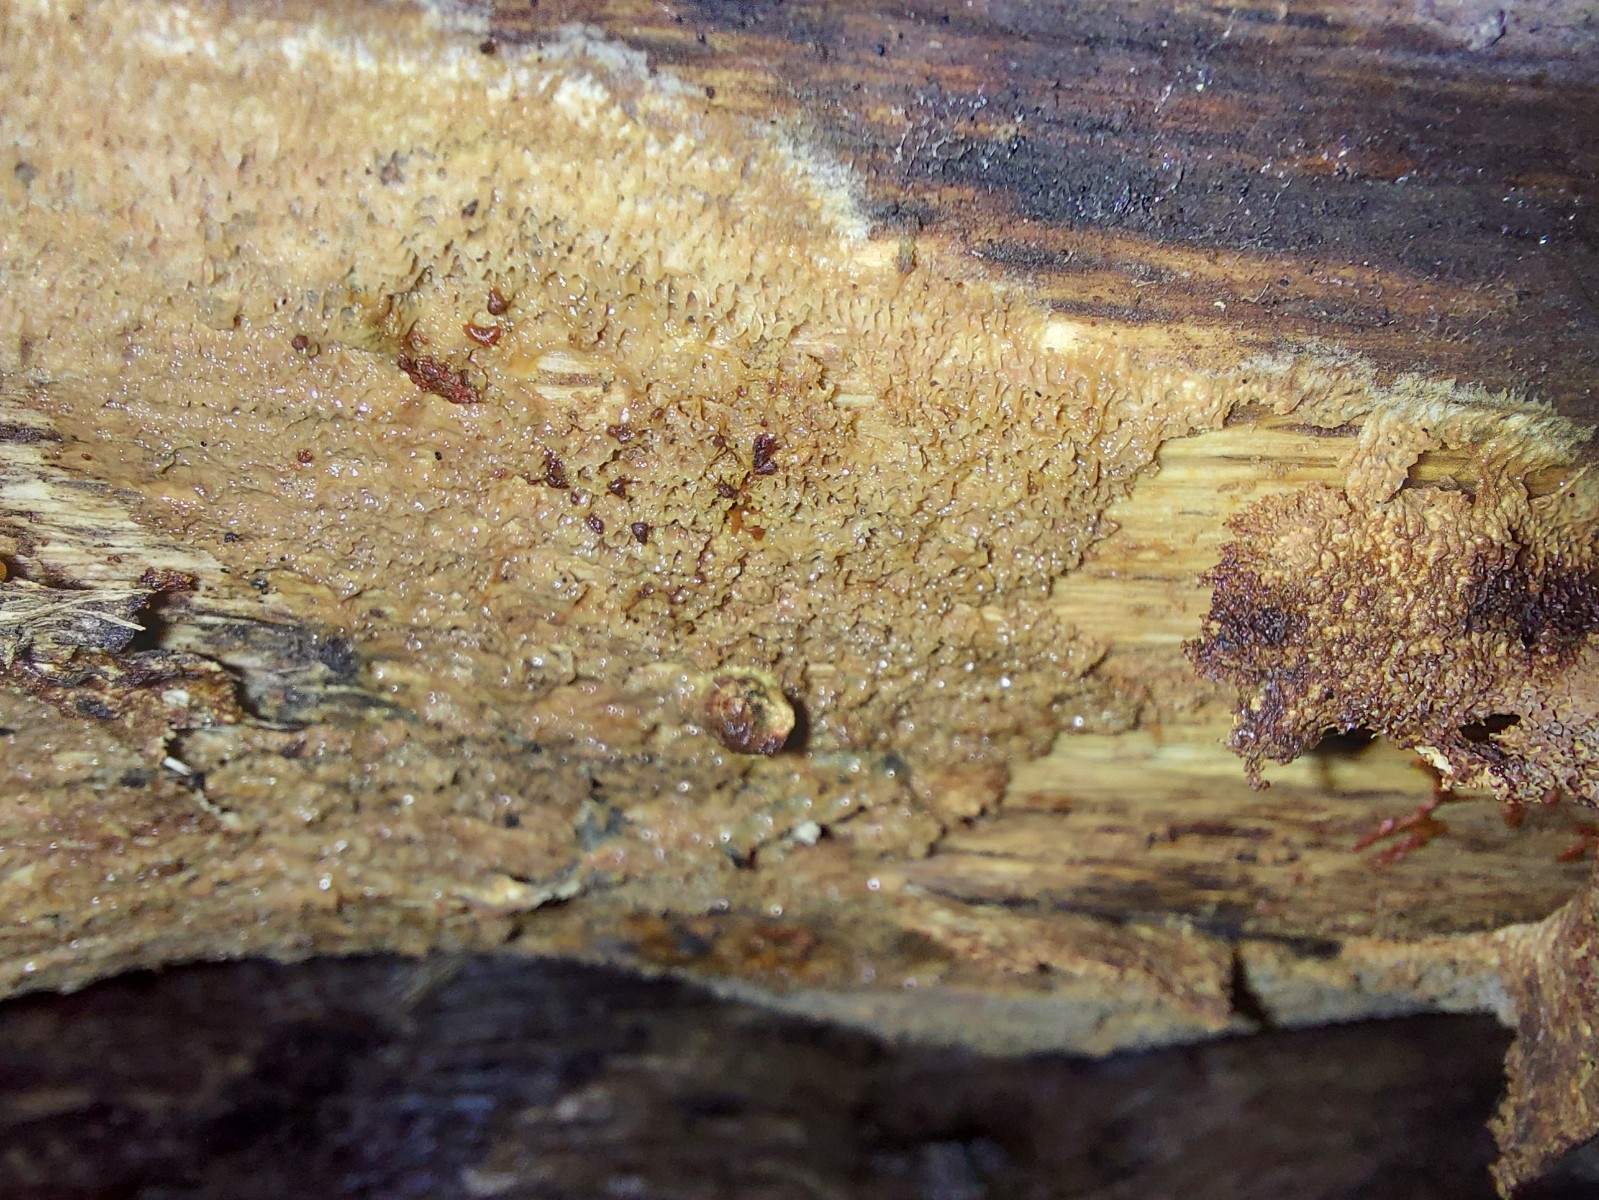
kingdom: Fungi
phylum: Basidiomycota
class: Agaricomycetes
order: Corticiales
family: Corticiaceae
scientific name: Corticiaceae
